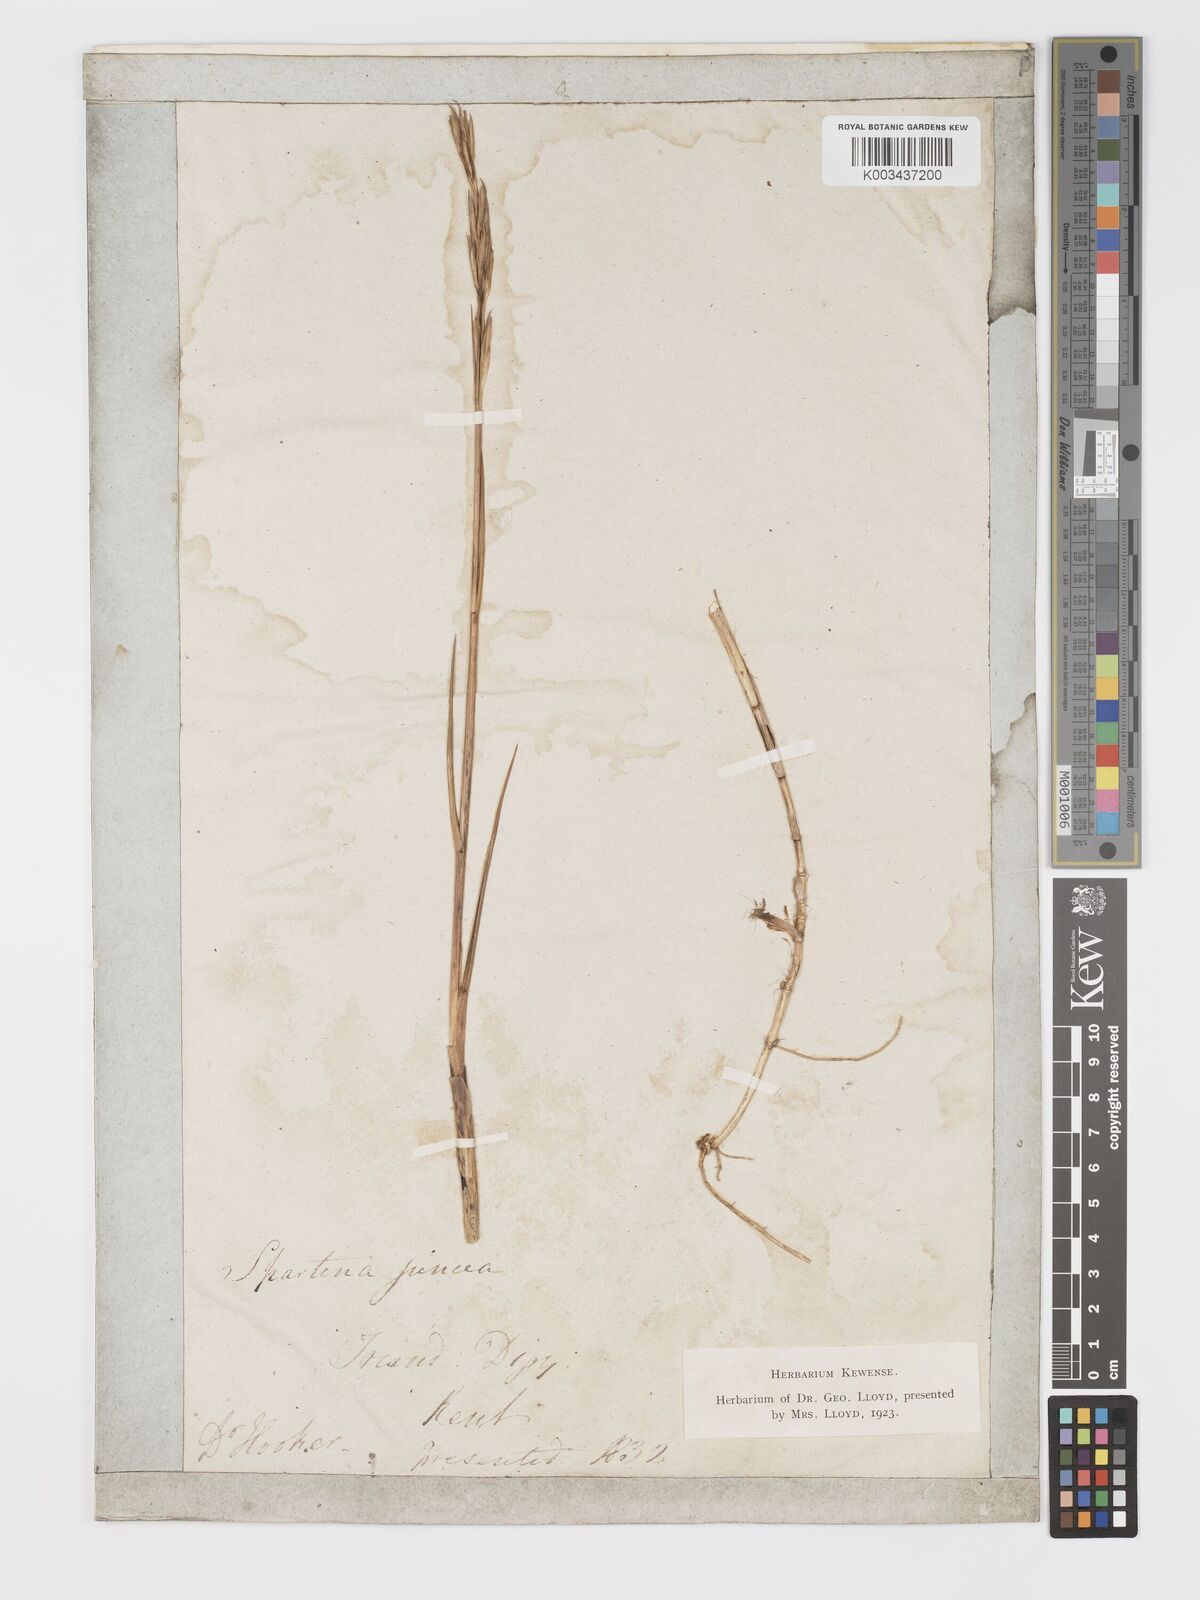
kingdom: Plantae
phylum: Tracheophyta
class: Liliopsida
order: Poales
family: Poaceae
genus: Sporobolus
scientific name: Sporobolus maritimus
